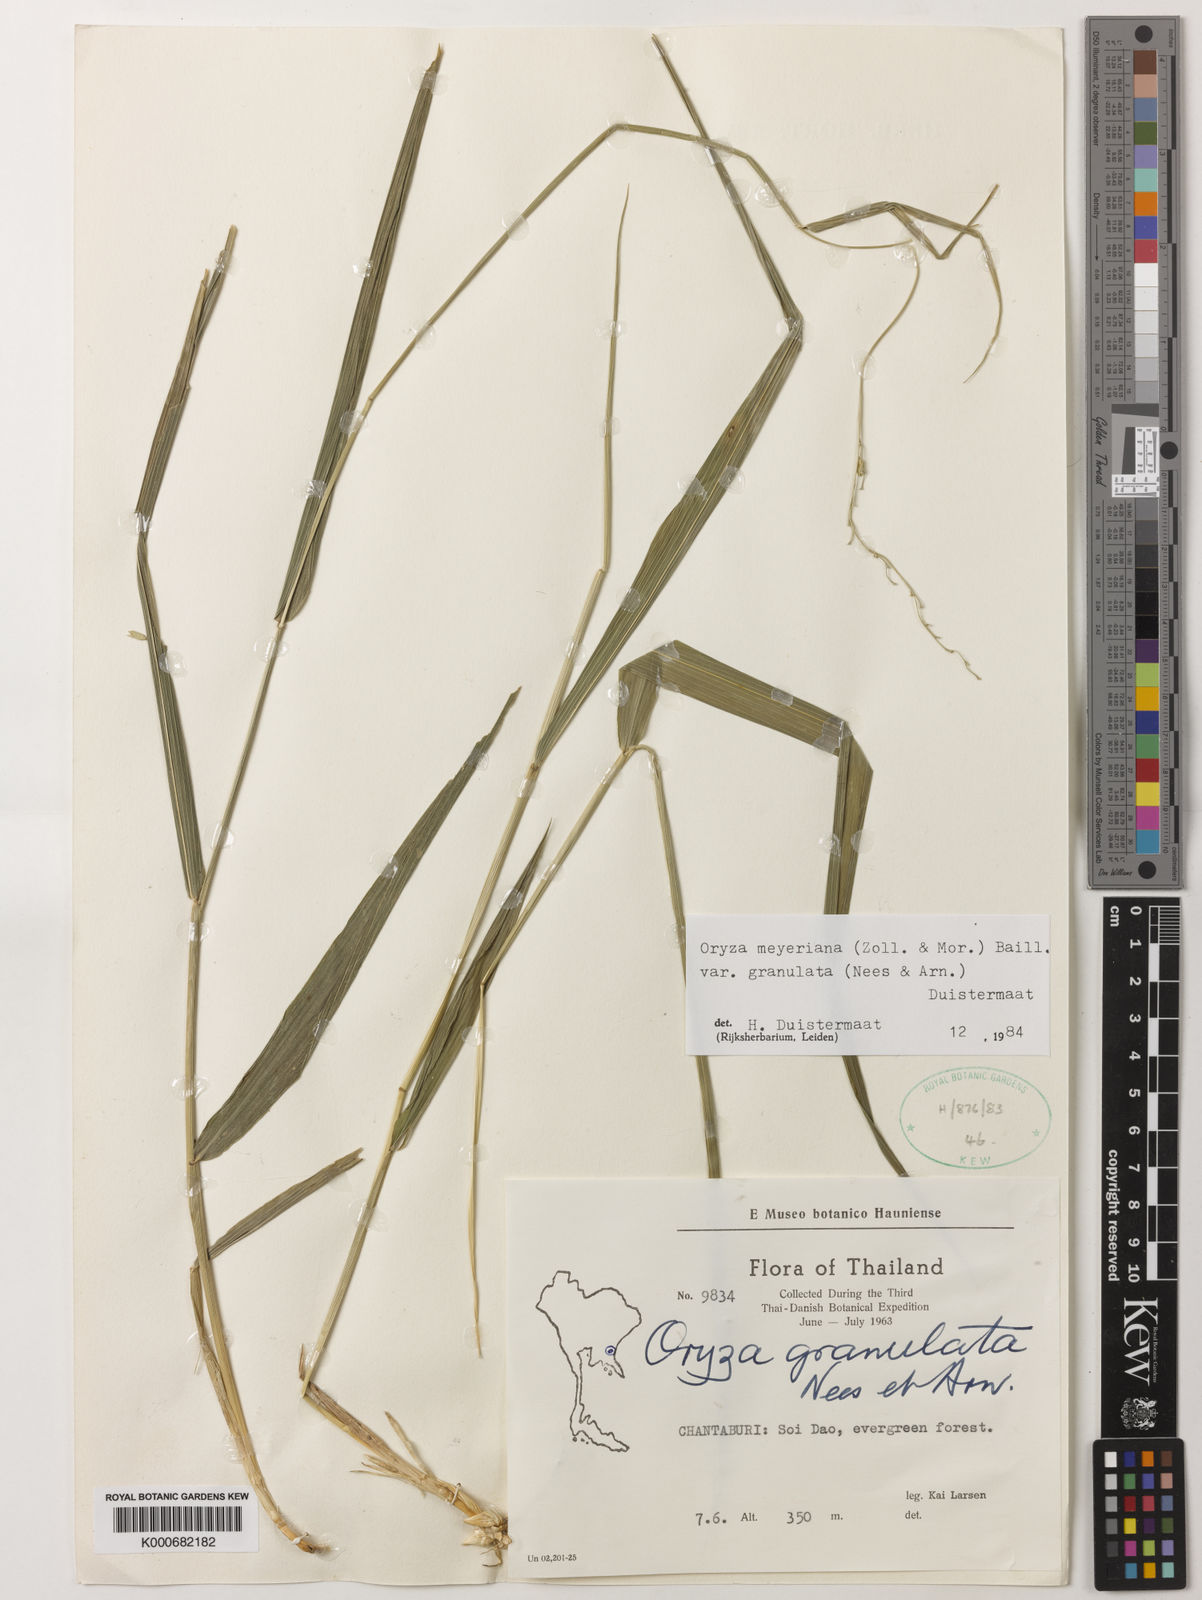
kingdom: Plantae
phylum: Tracheophyta
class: Liliopsida
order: Poales
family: Poaceae
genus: Oryza
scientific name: Oryza meyeriana
